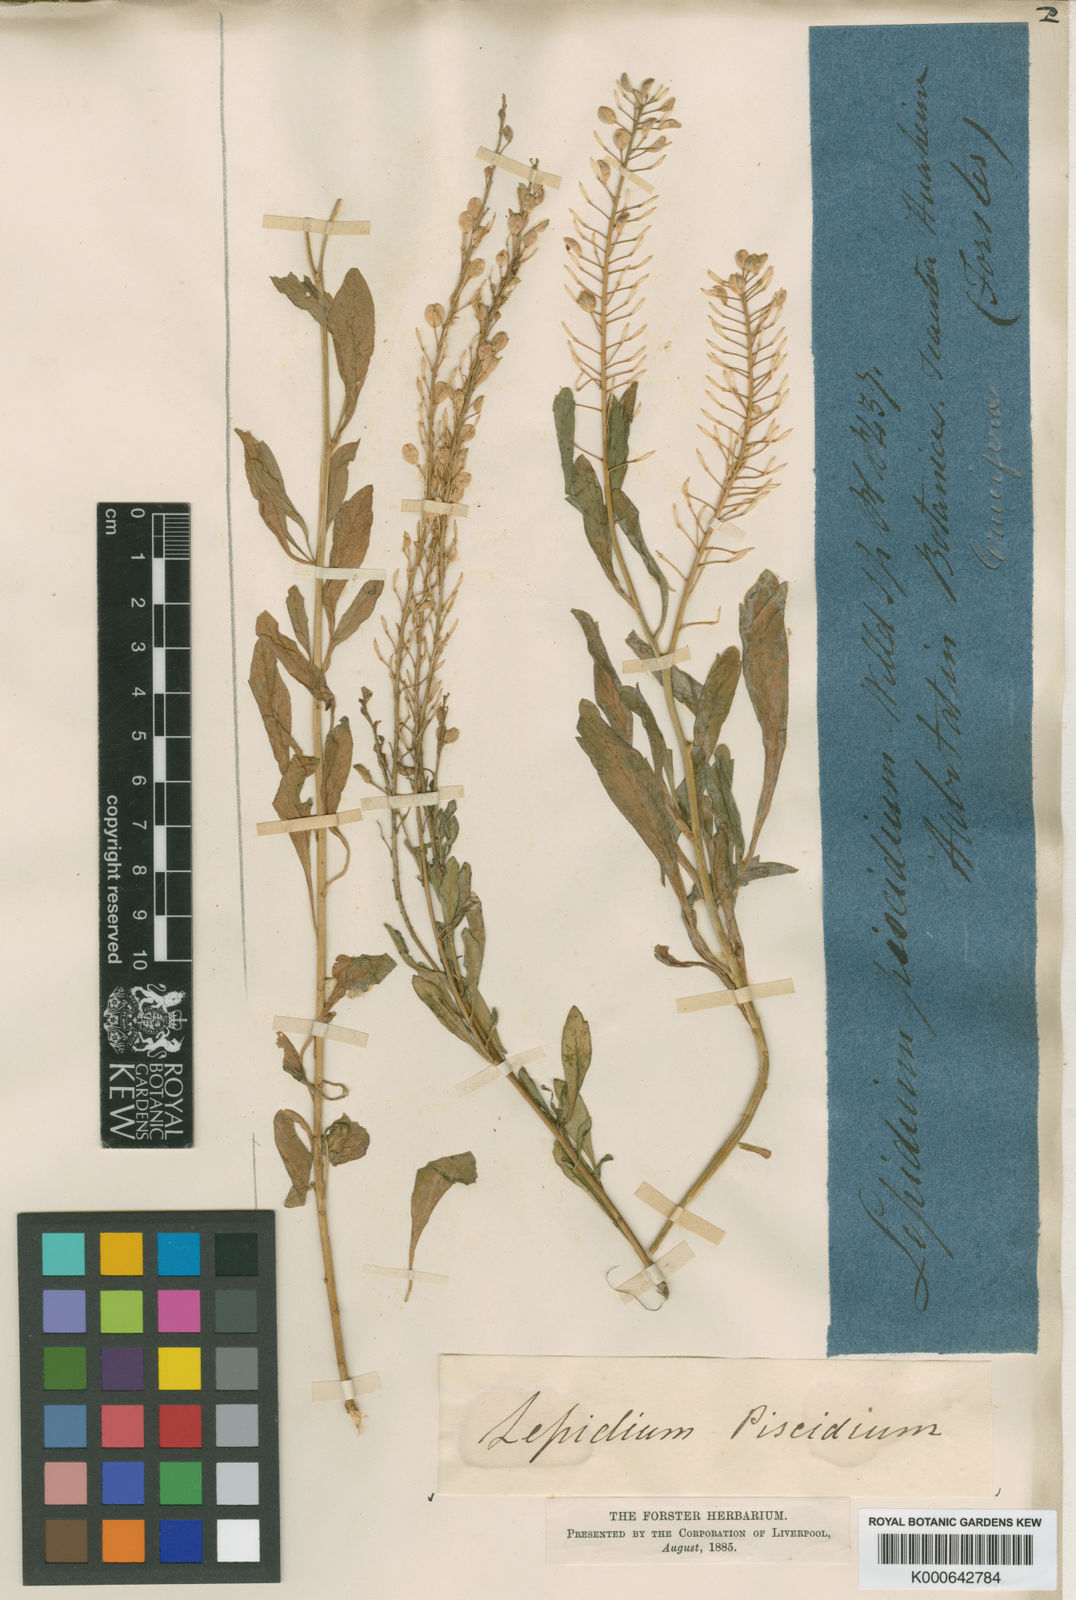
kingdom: Plantae
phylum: Tracheophyta
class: Magnoliopsida
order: Brassicales
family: Brassicaceae
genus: Lepidium
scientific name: Lepidium bidentatum
